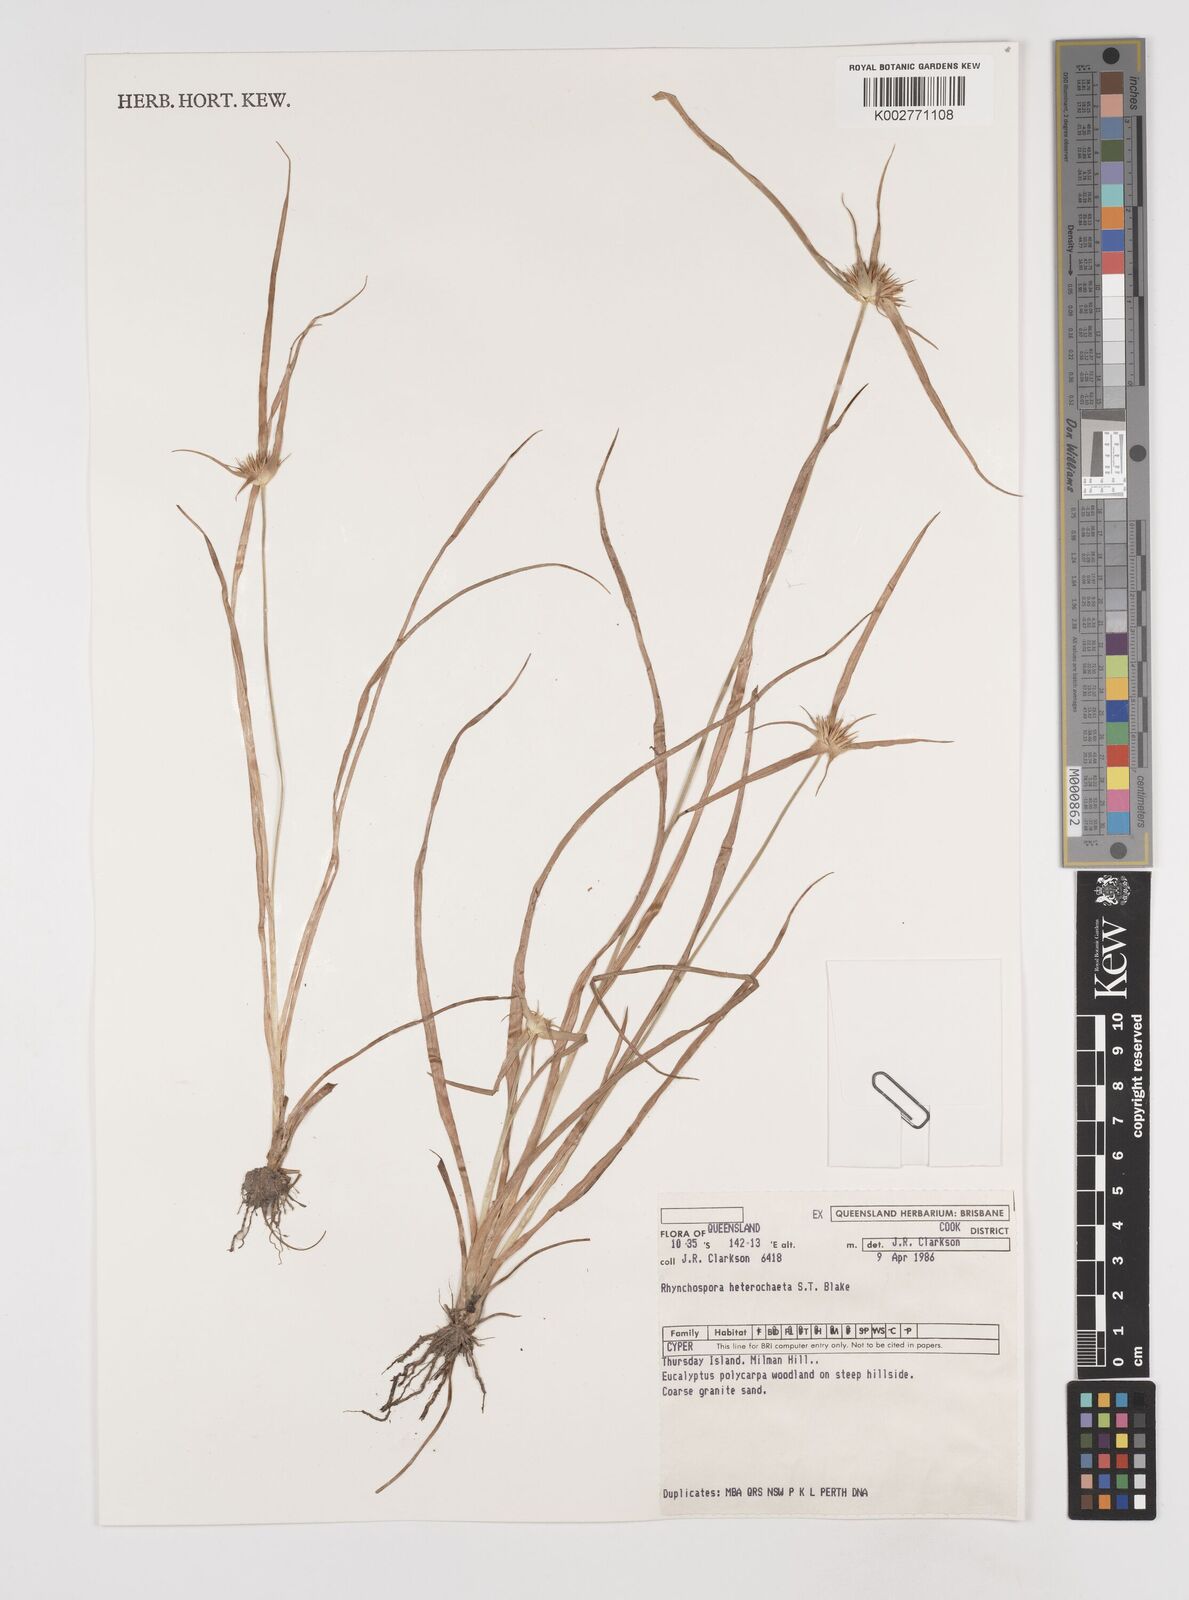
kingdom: Plantae
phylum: Tracheophyta
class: Liliopsida
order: Poales
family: Cyperaceae
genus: Rhynchospora
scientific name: Rhynchospora heterochaeta
